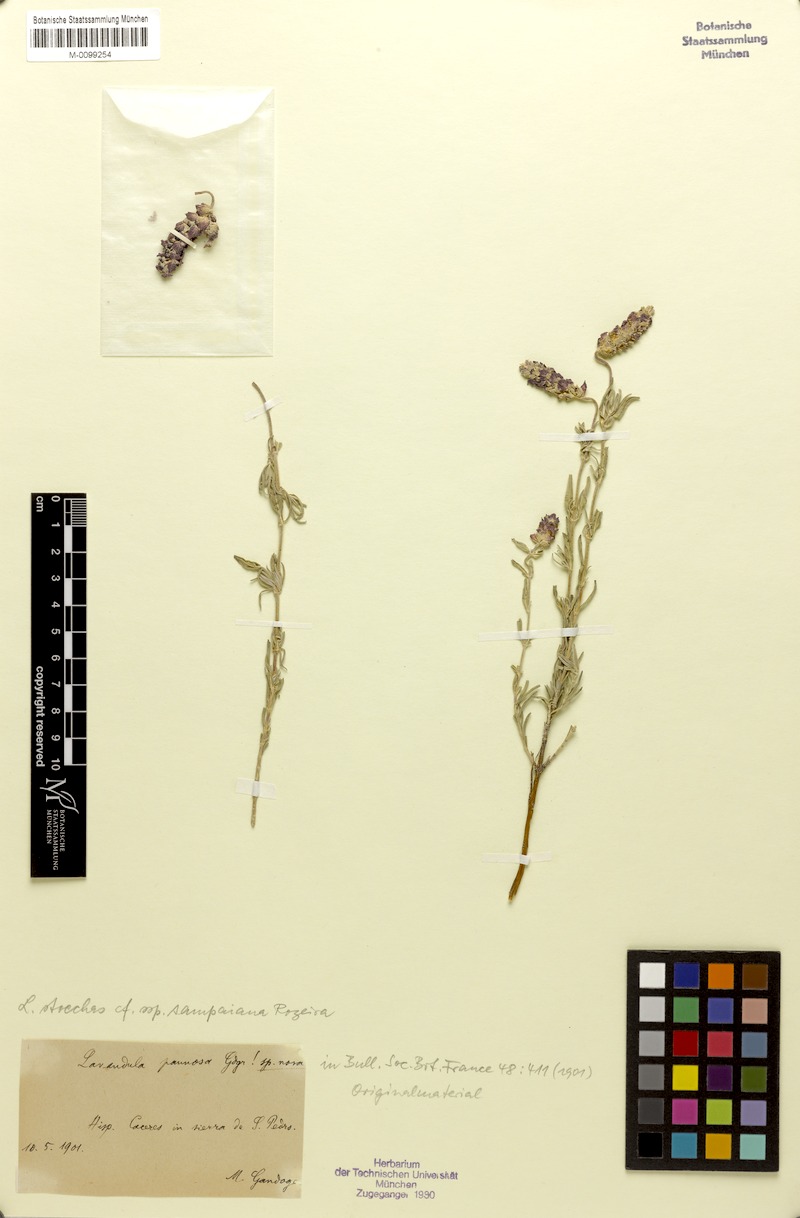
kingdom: Plantae
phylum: Tracheophyta
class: Magnoliopsida
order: Lamiales
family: Lamiaceae
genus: Lavandula
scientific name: Lavandula pedunculata
